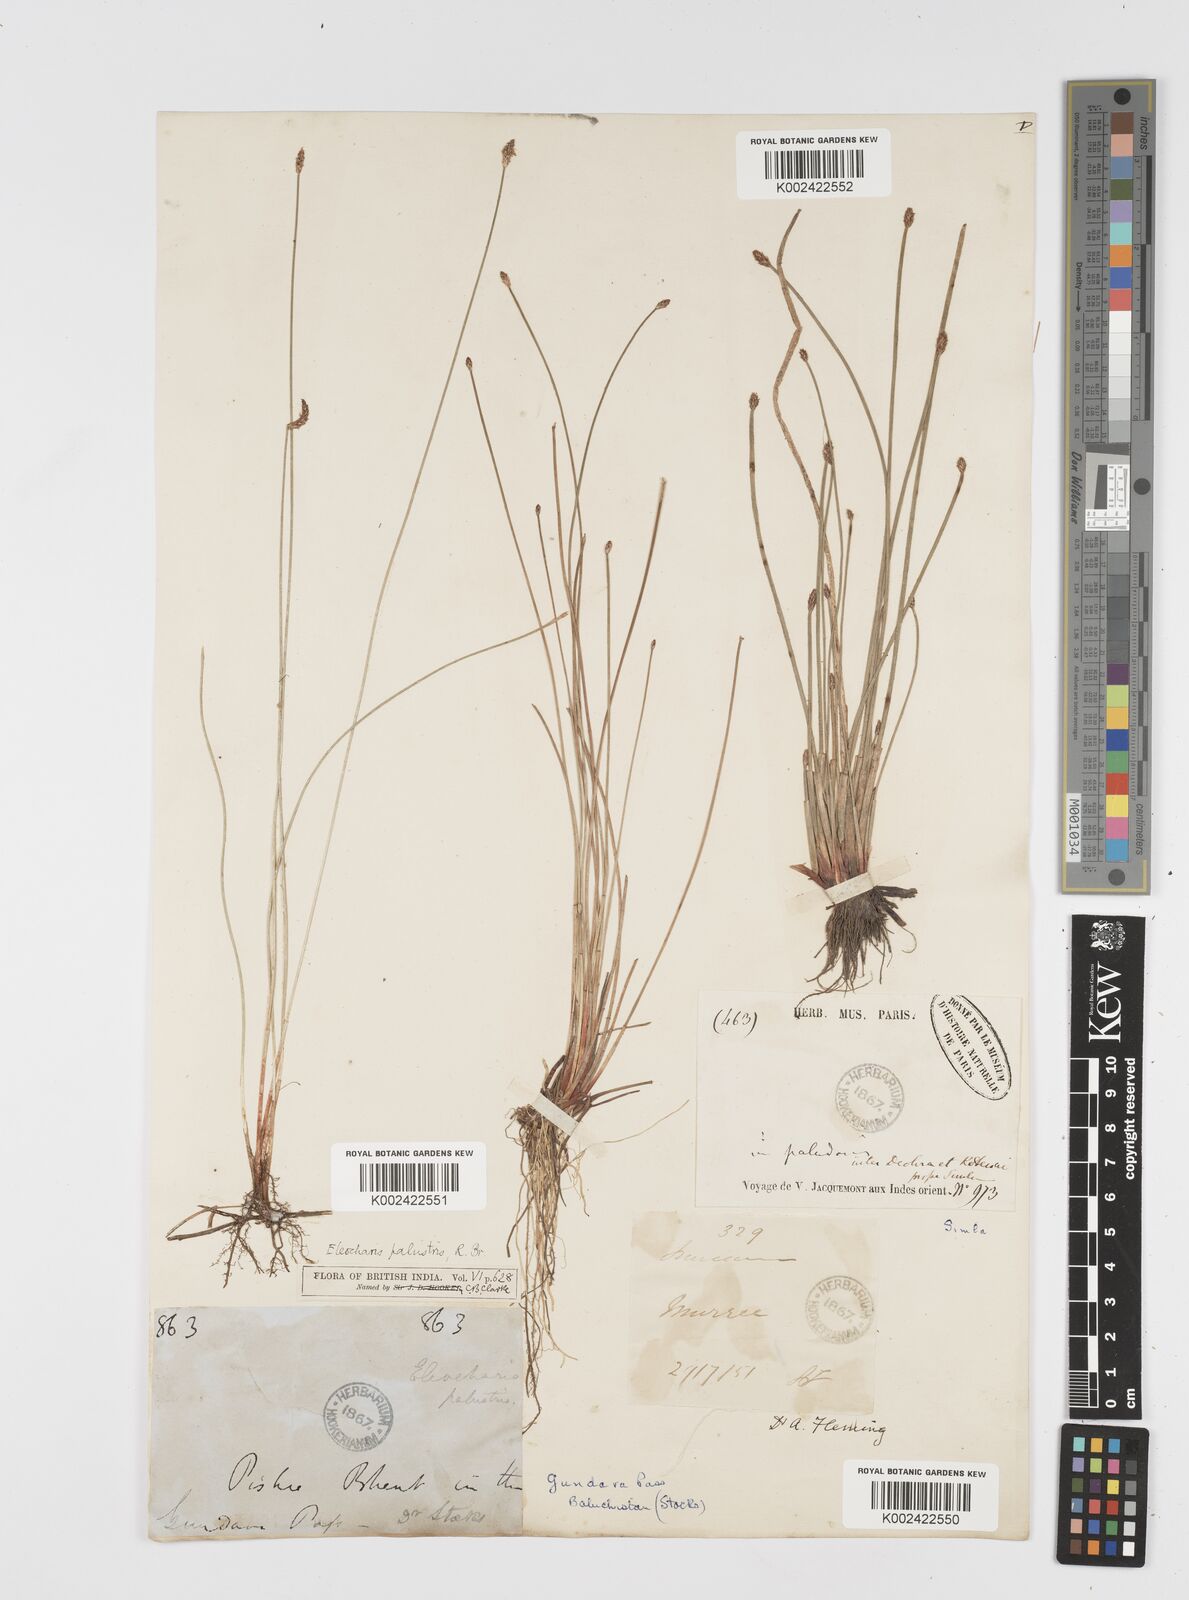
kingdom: Plantae
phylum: Tracheophyta
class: Liliopsida
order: Poales
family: Cyperaceae
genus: Eleocharis
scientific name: Eleocharis palustris
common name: Common spike-rush
